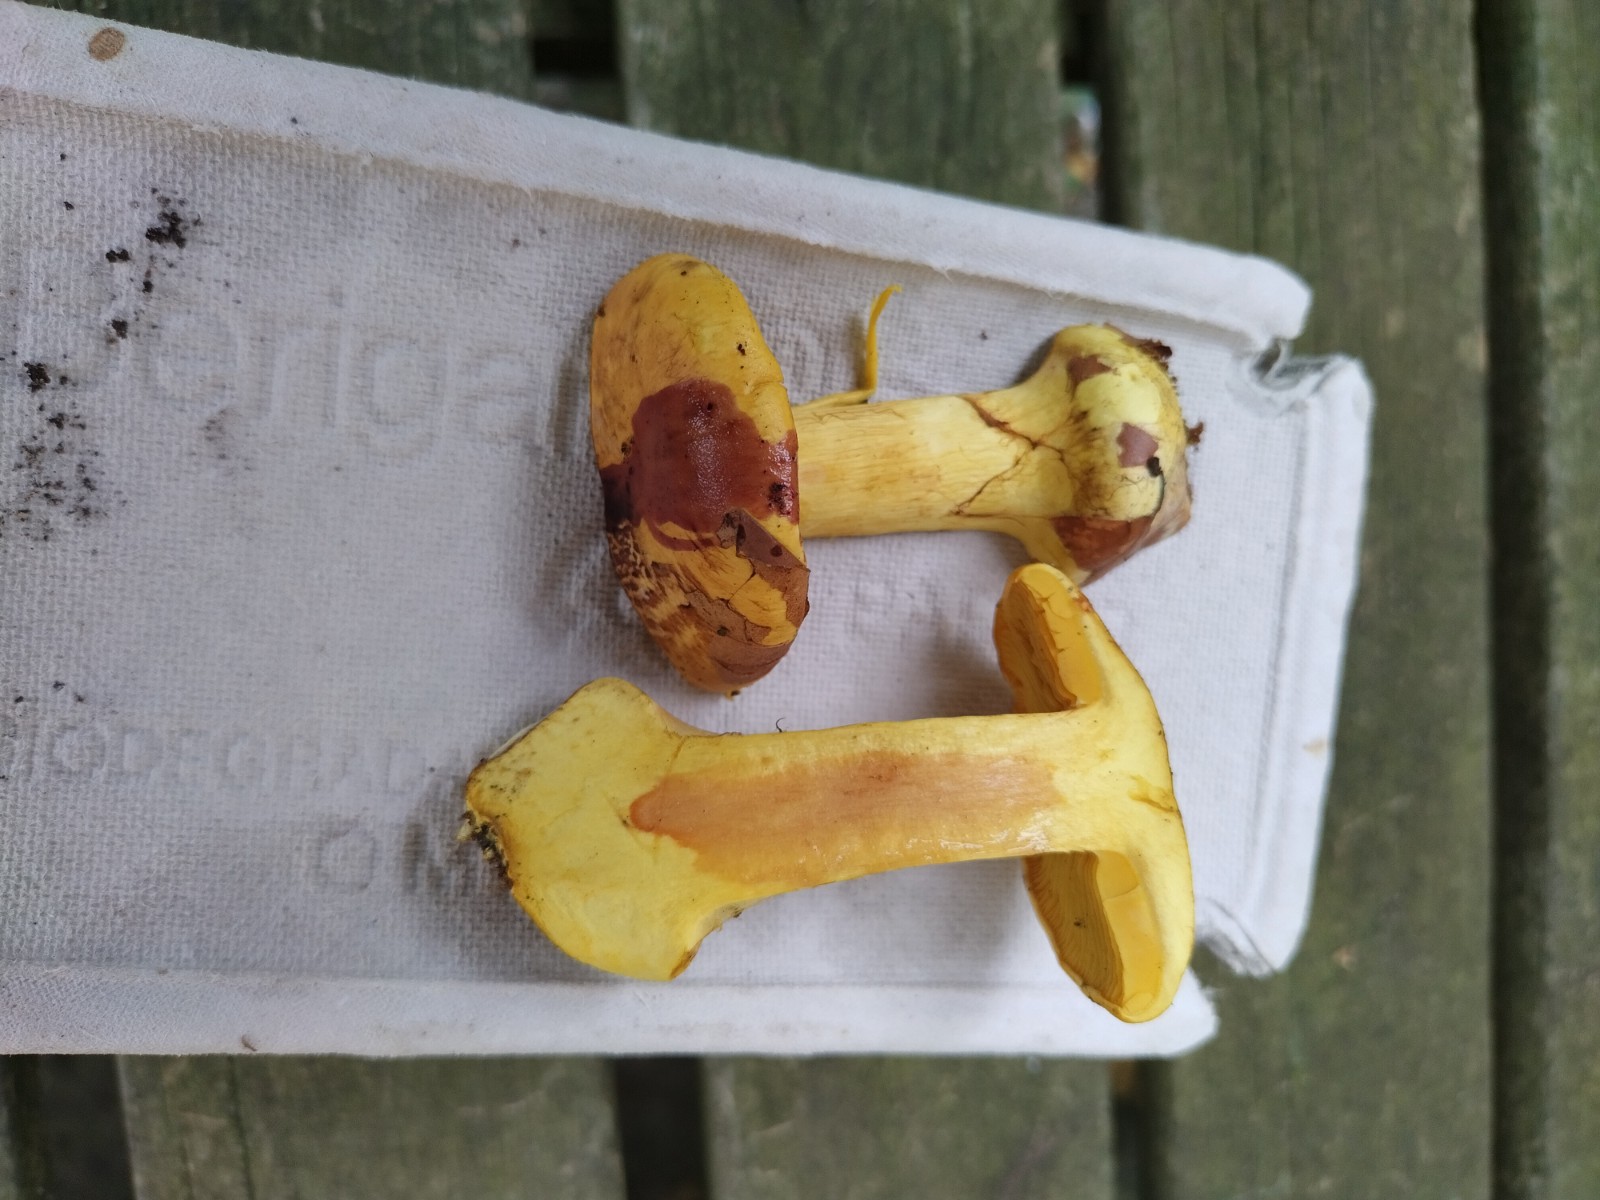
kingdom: Fungi
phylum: Basidiomycota
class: Agaricomycetes
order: Agaricales
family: Cortinariaceae
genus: Calonarius
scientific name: Calonarius splendens
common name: sirene-slørhat
